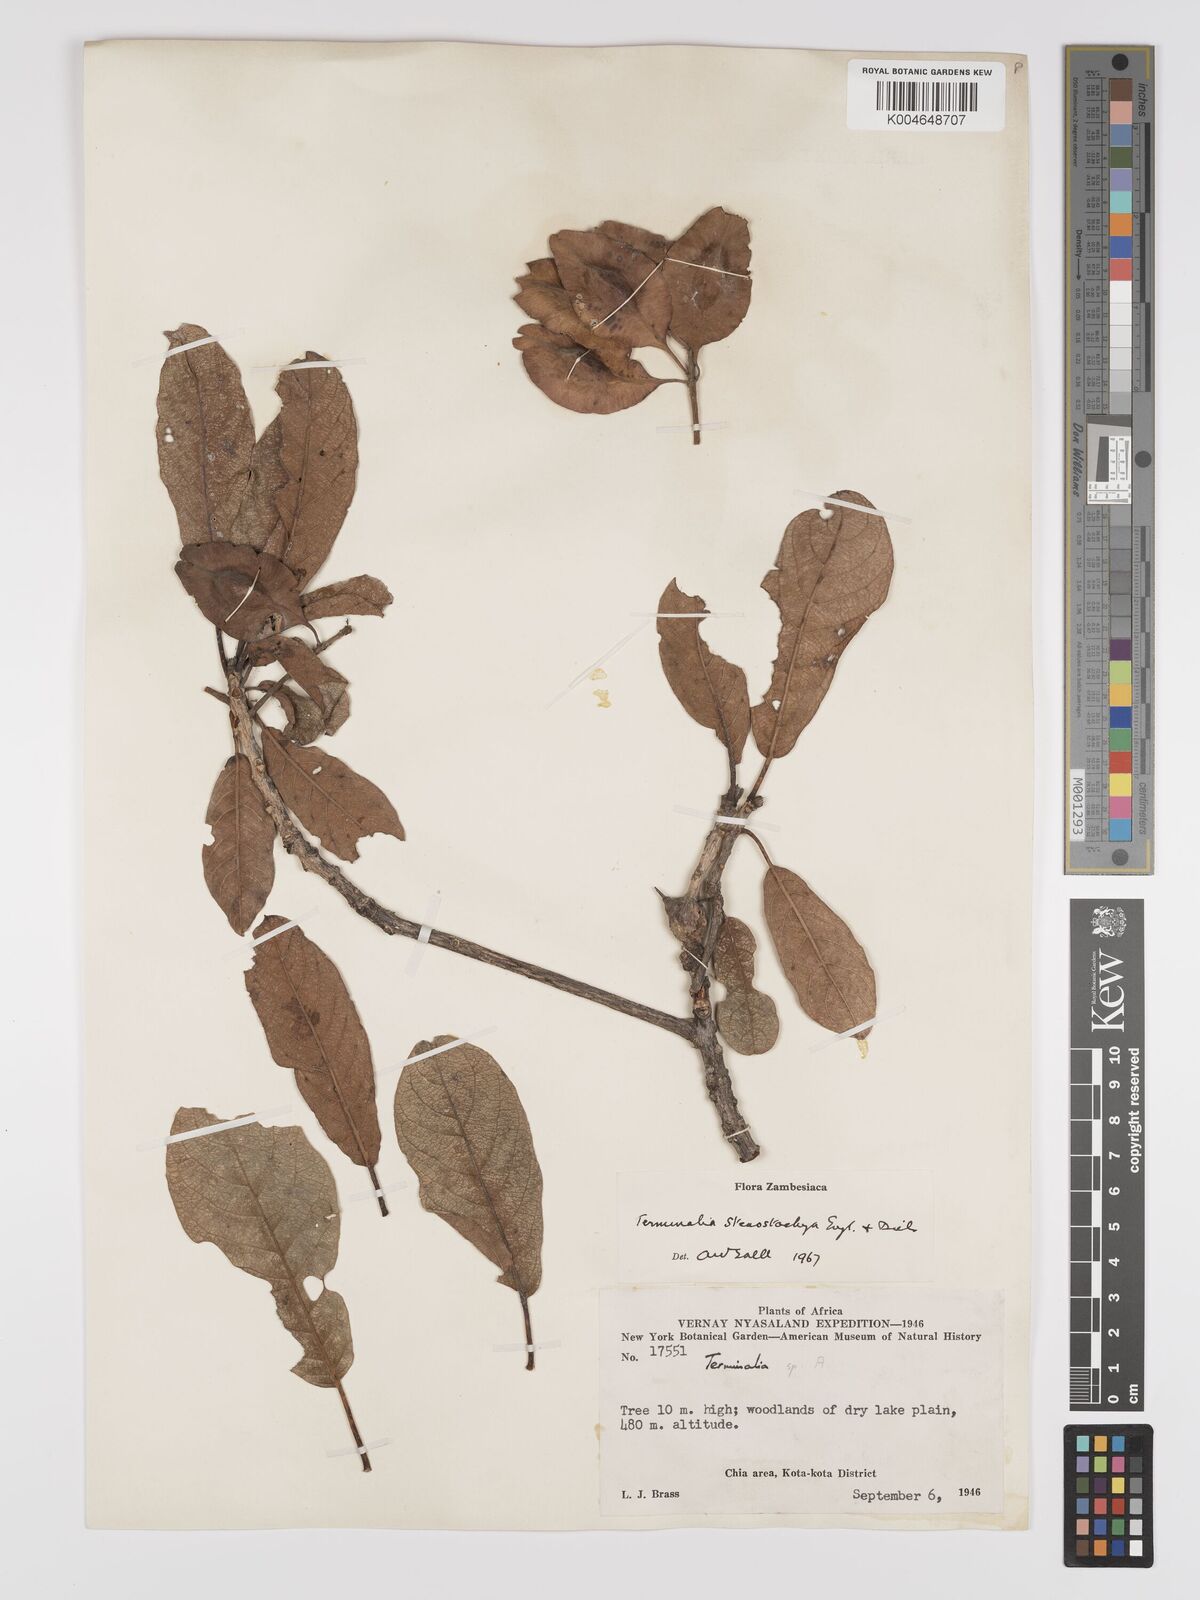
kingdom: Plantae
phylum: Tracheophyta
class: Magnoliopsida
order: Myrtales
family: Combretaceae
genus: Terminalia
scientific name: Terminalia stenostachya
